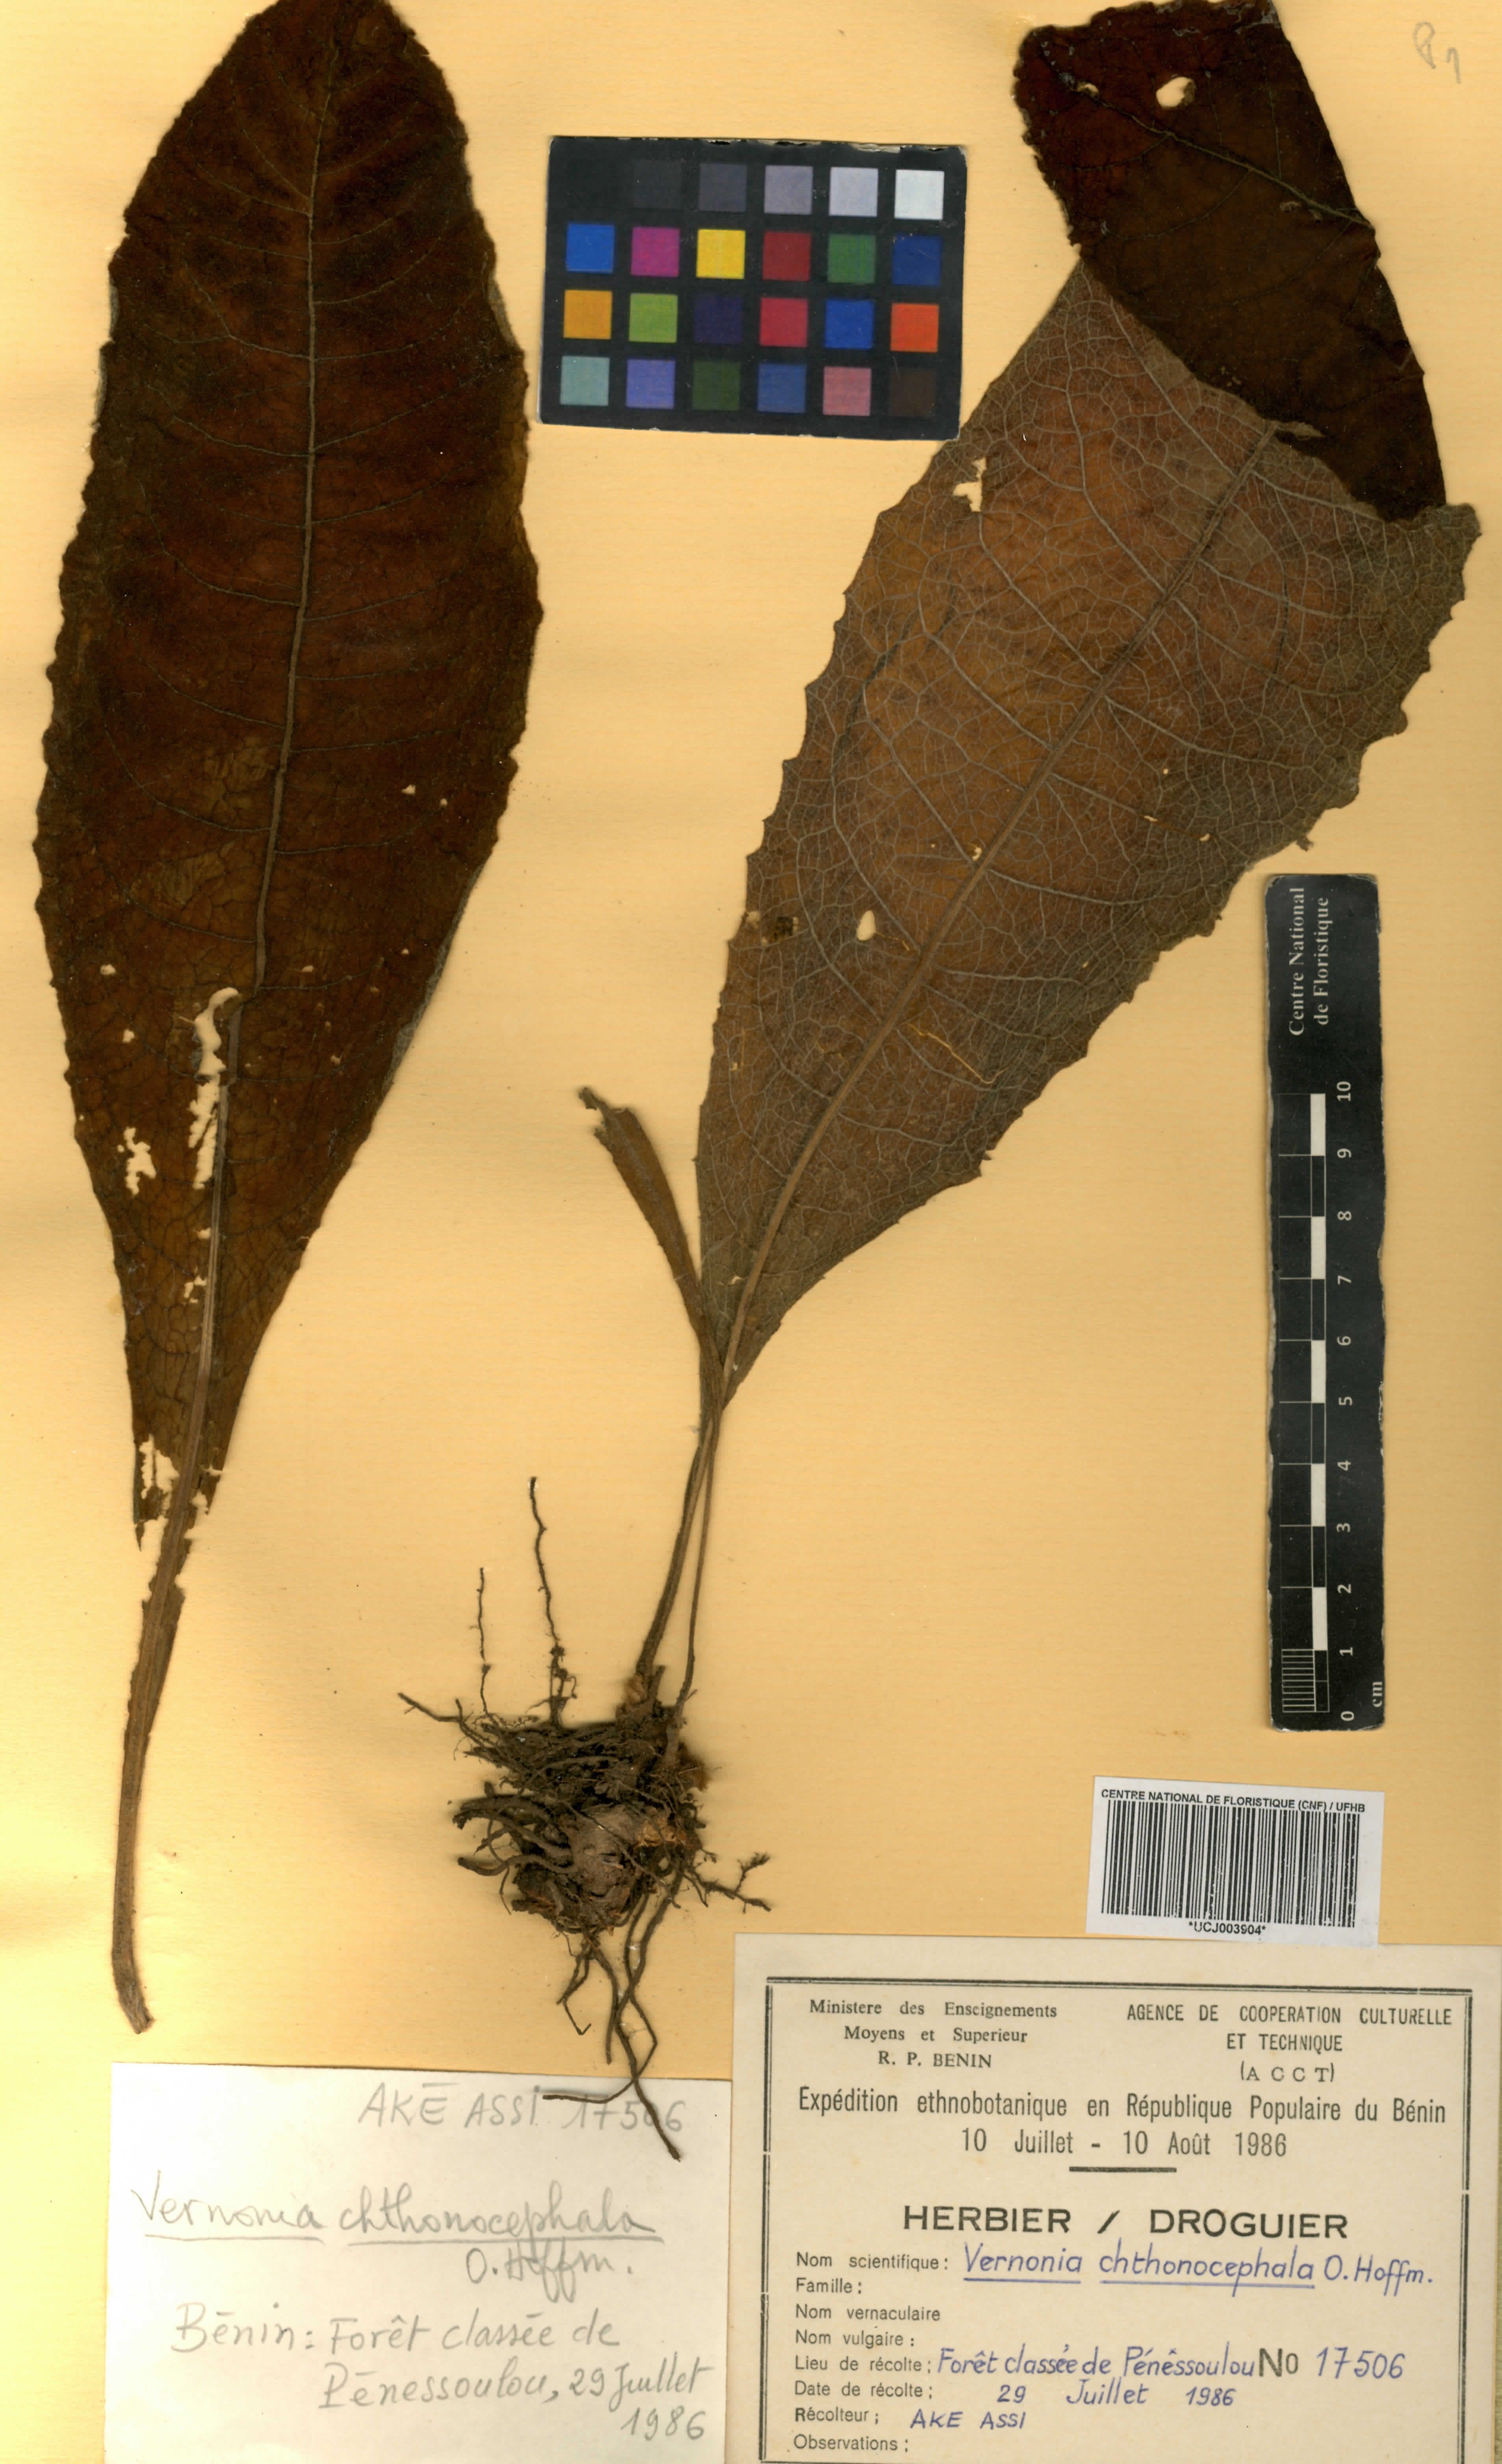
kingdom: Plantae
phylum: Tracheophyta
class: Magnoliopsida
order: Asterales
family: Asteraceae
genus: Vernonella
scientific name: Vernonella chthonocephala
